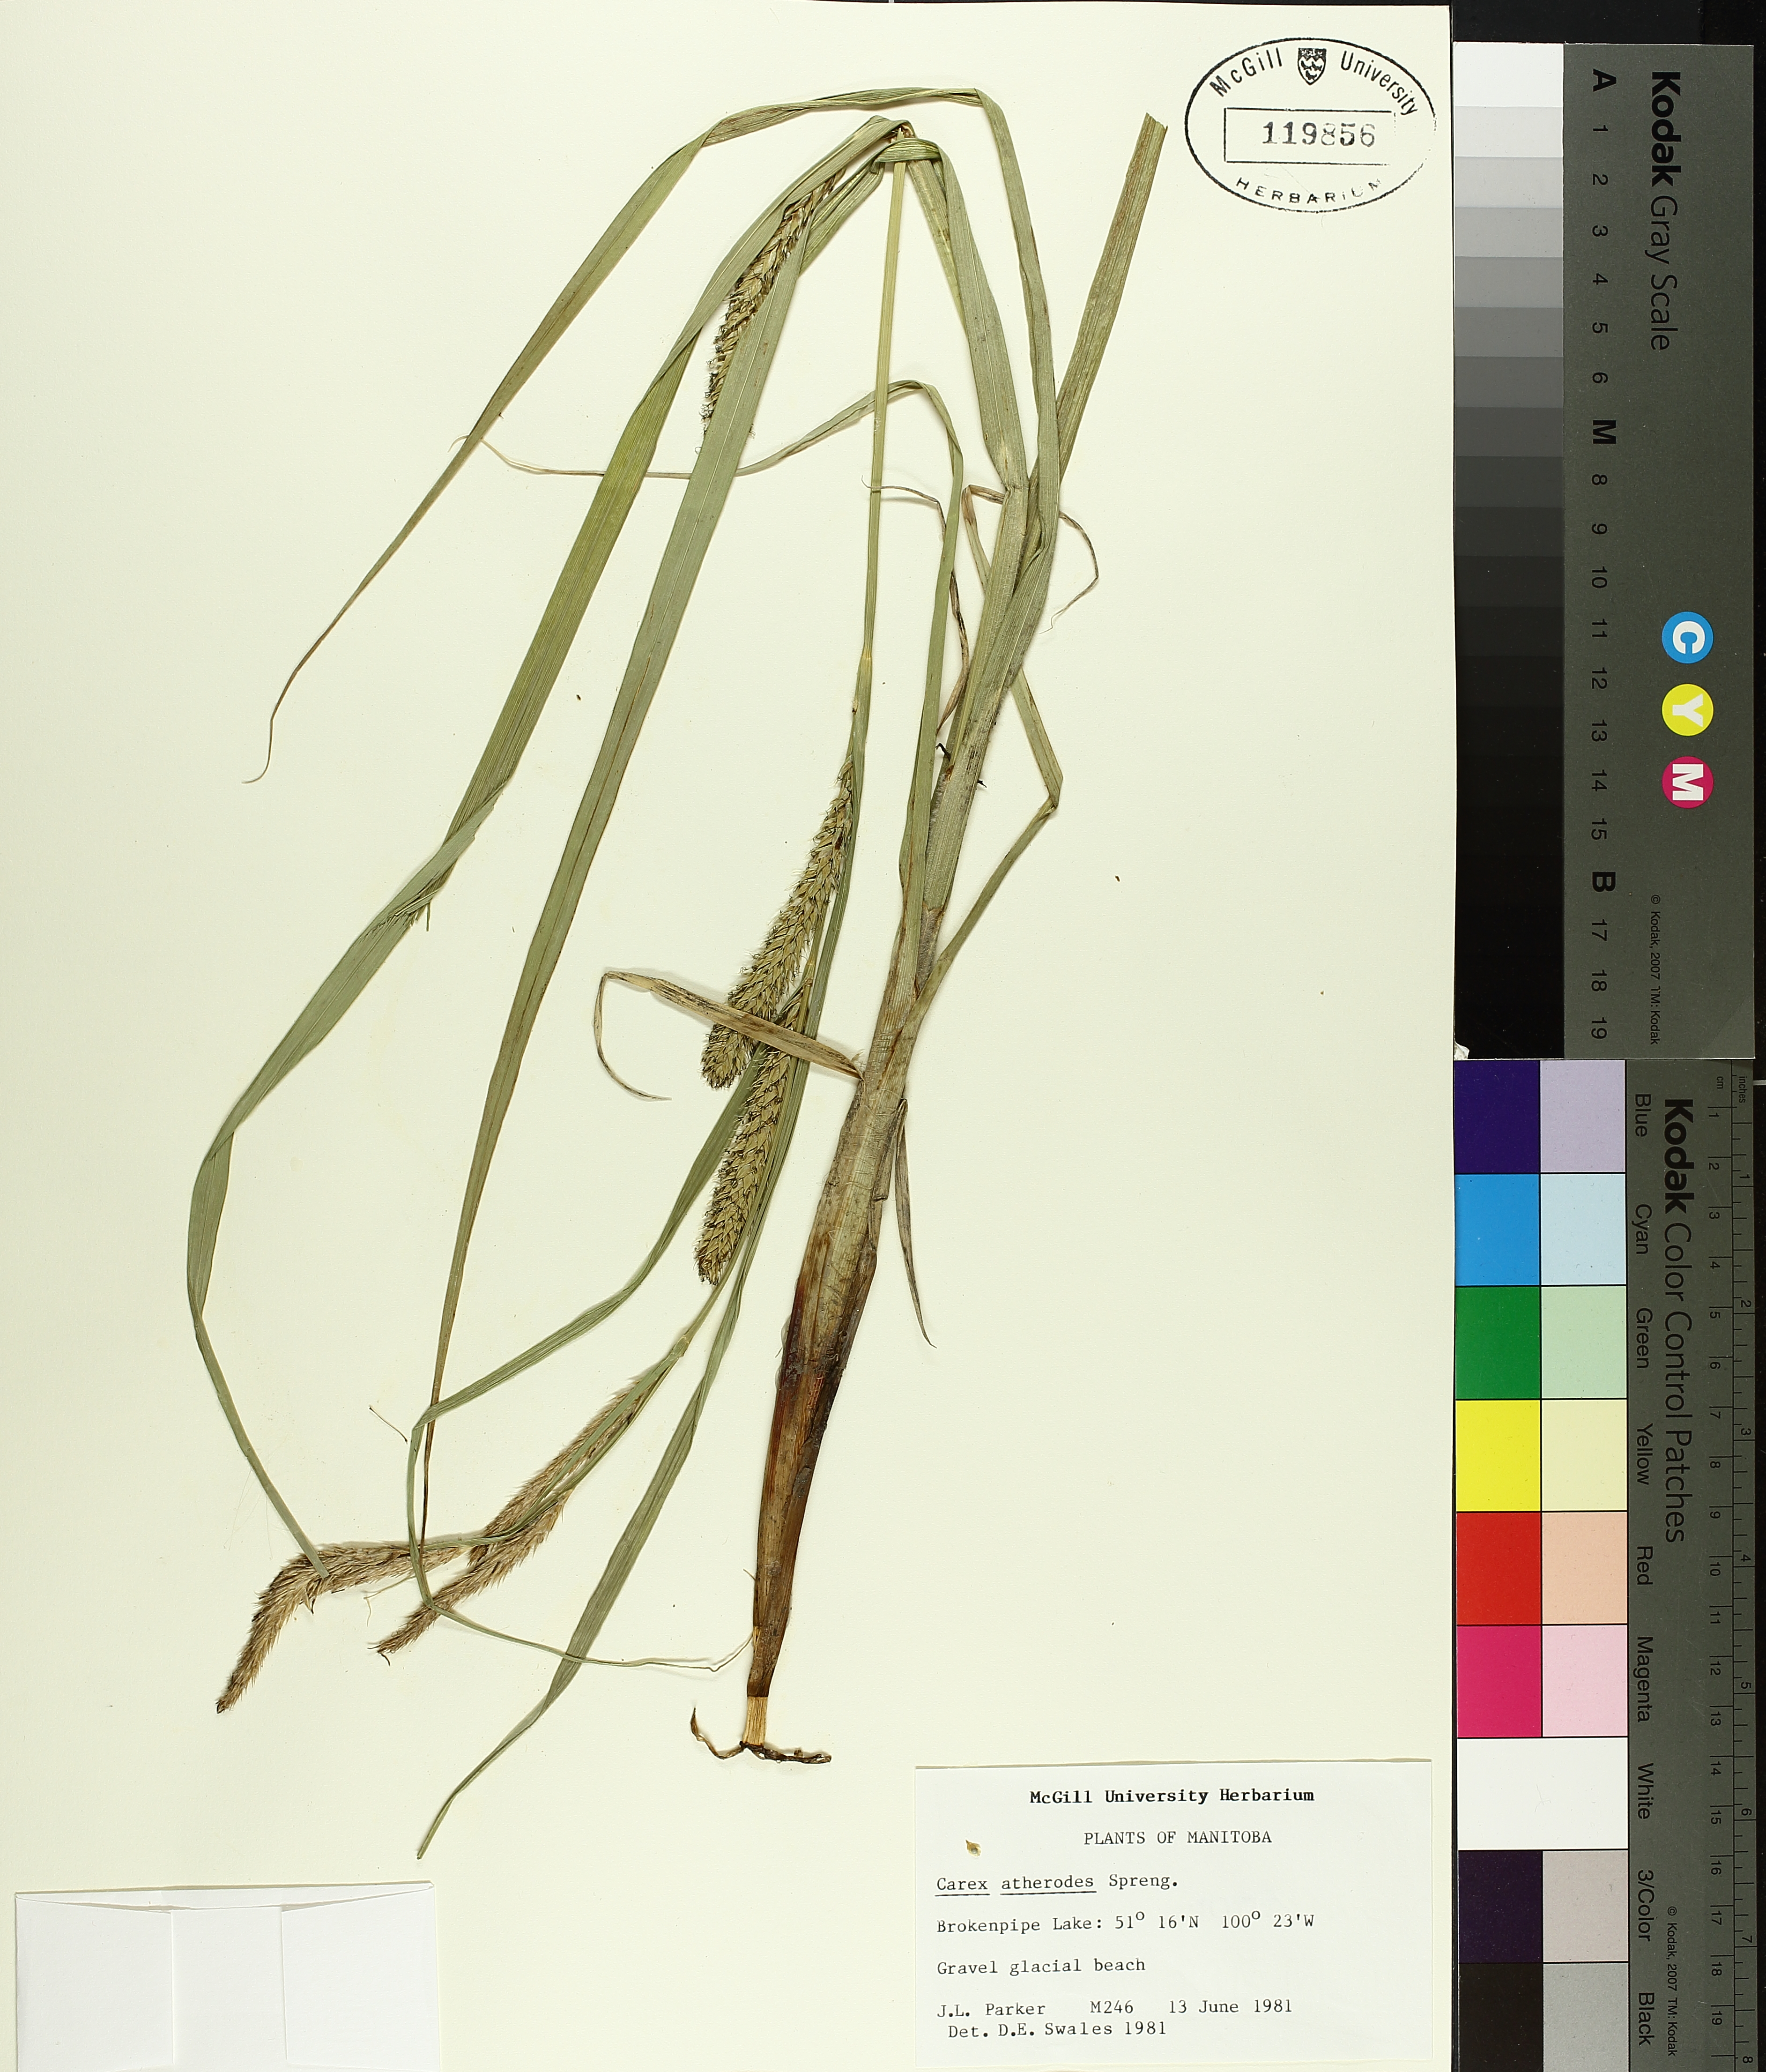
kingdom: Plantae
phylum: Tracheophyta
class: Liliopsida
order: Poales
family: Cyperaceae
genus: Carex
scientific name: Carex atherodes
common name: Wheat sedge
